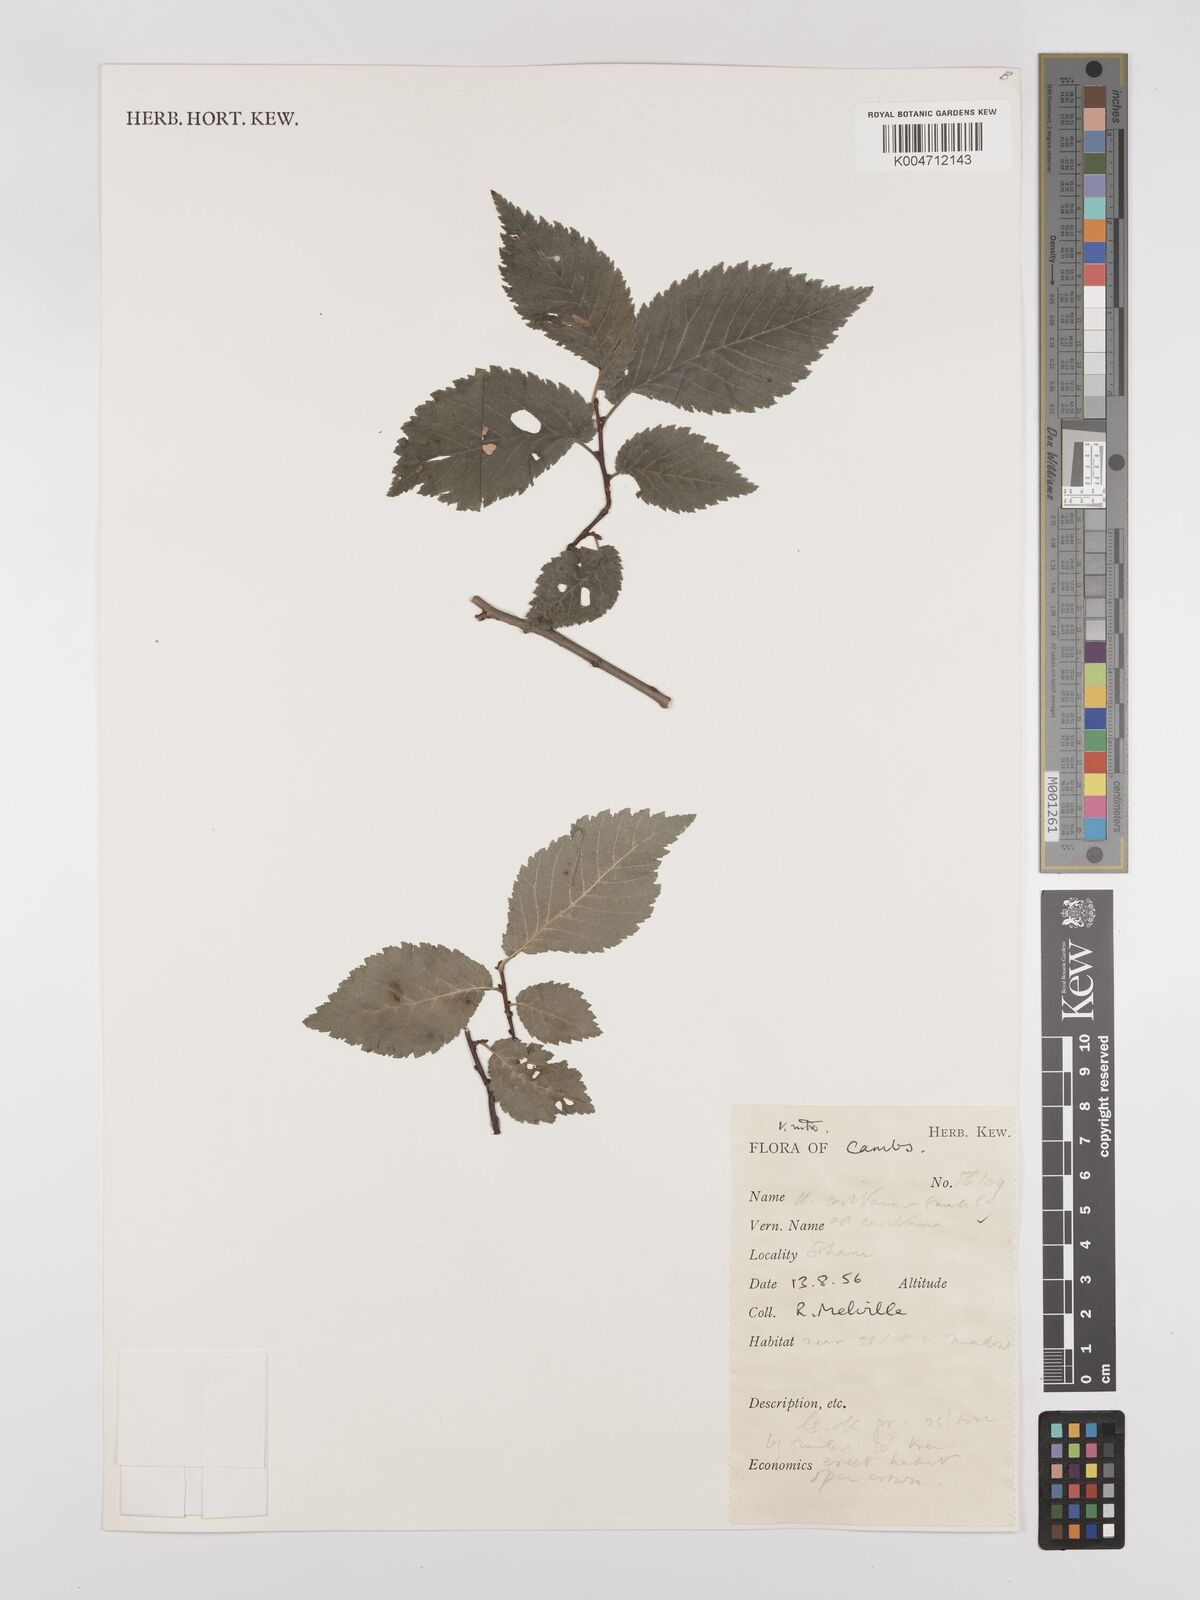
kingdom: Plantae
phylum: Tracheophyta
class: Magnoliopsida
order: Rosales
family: Ulmaceae
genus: Ulmus
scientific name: Ulmus minor
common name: Small-leaved elm
